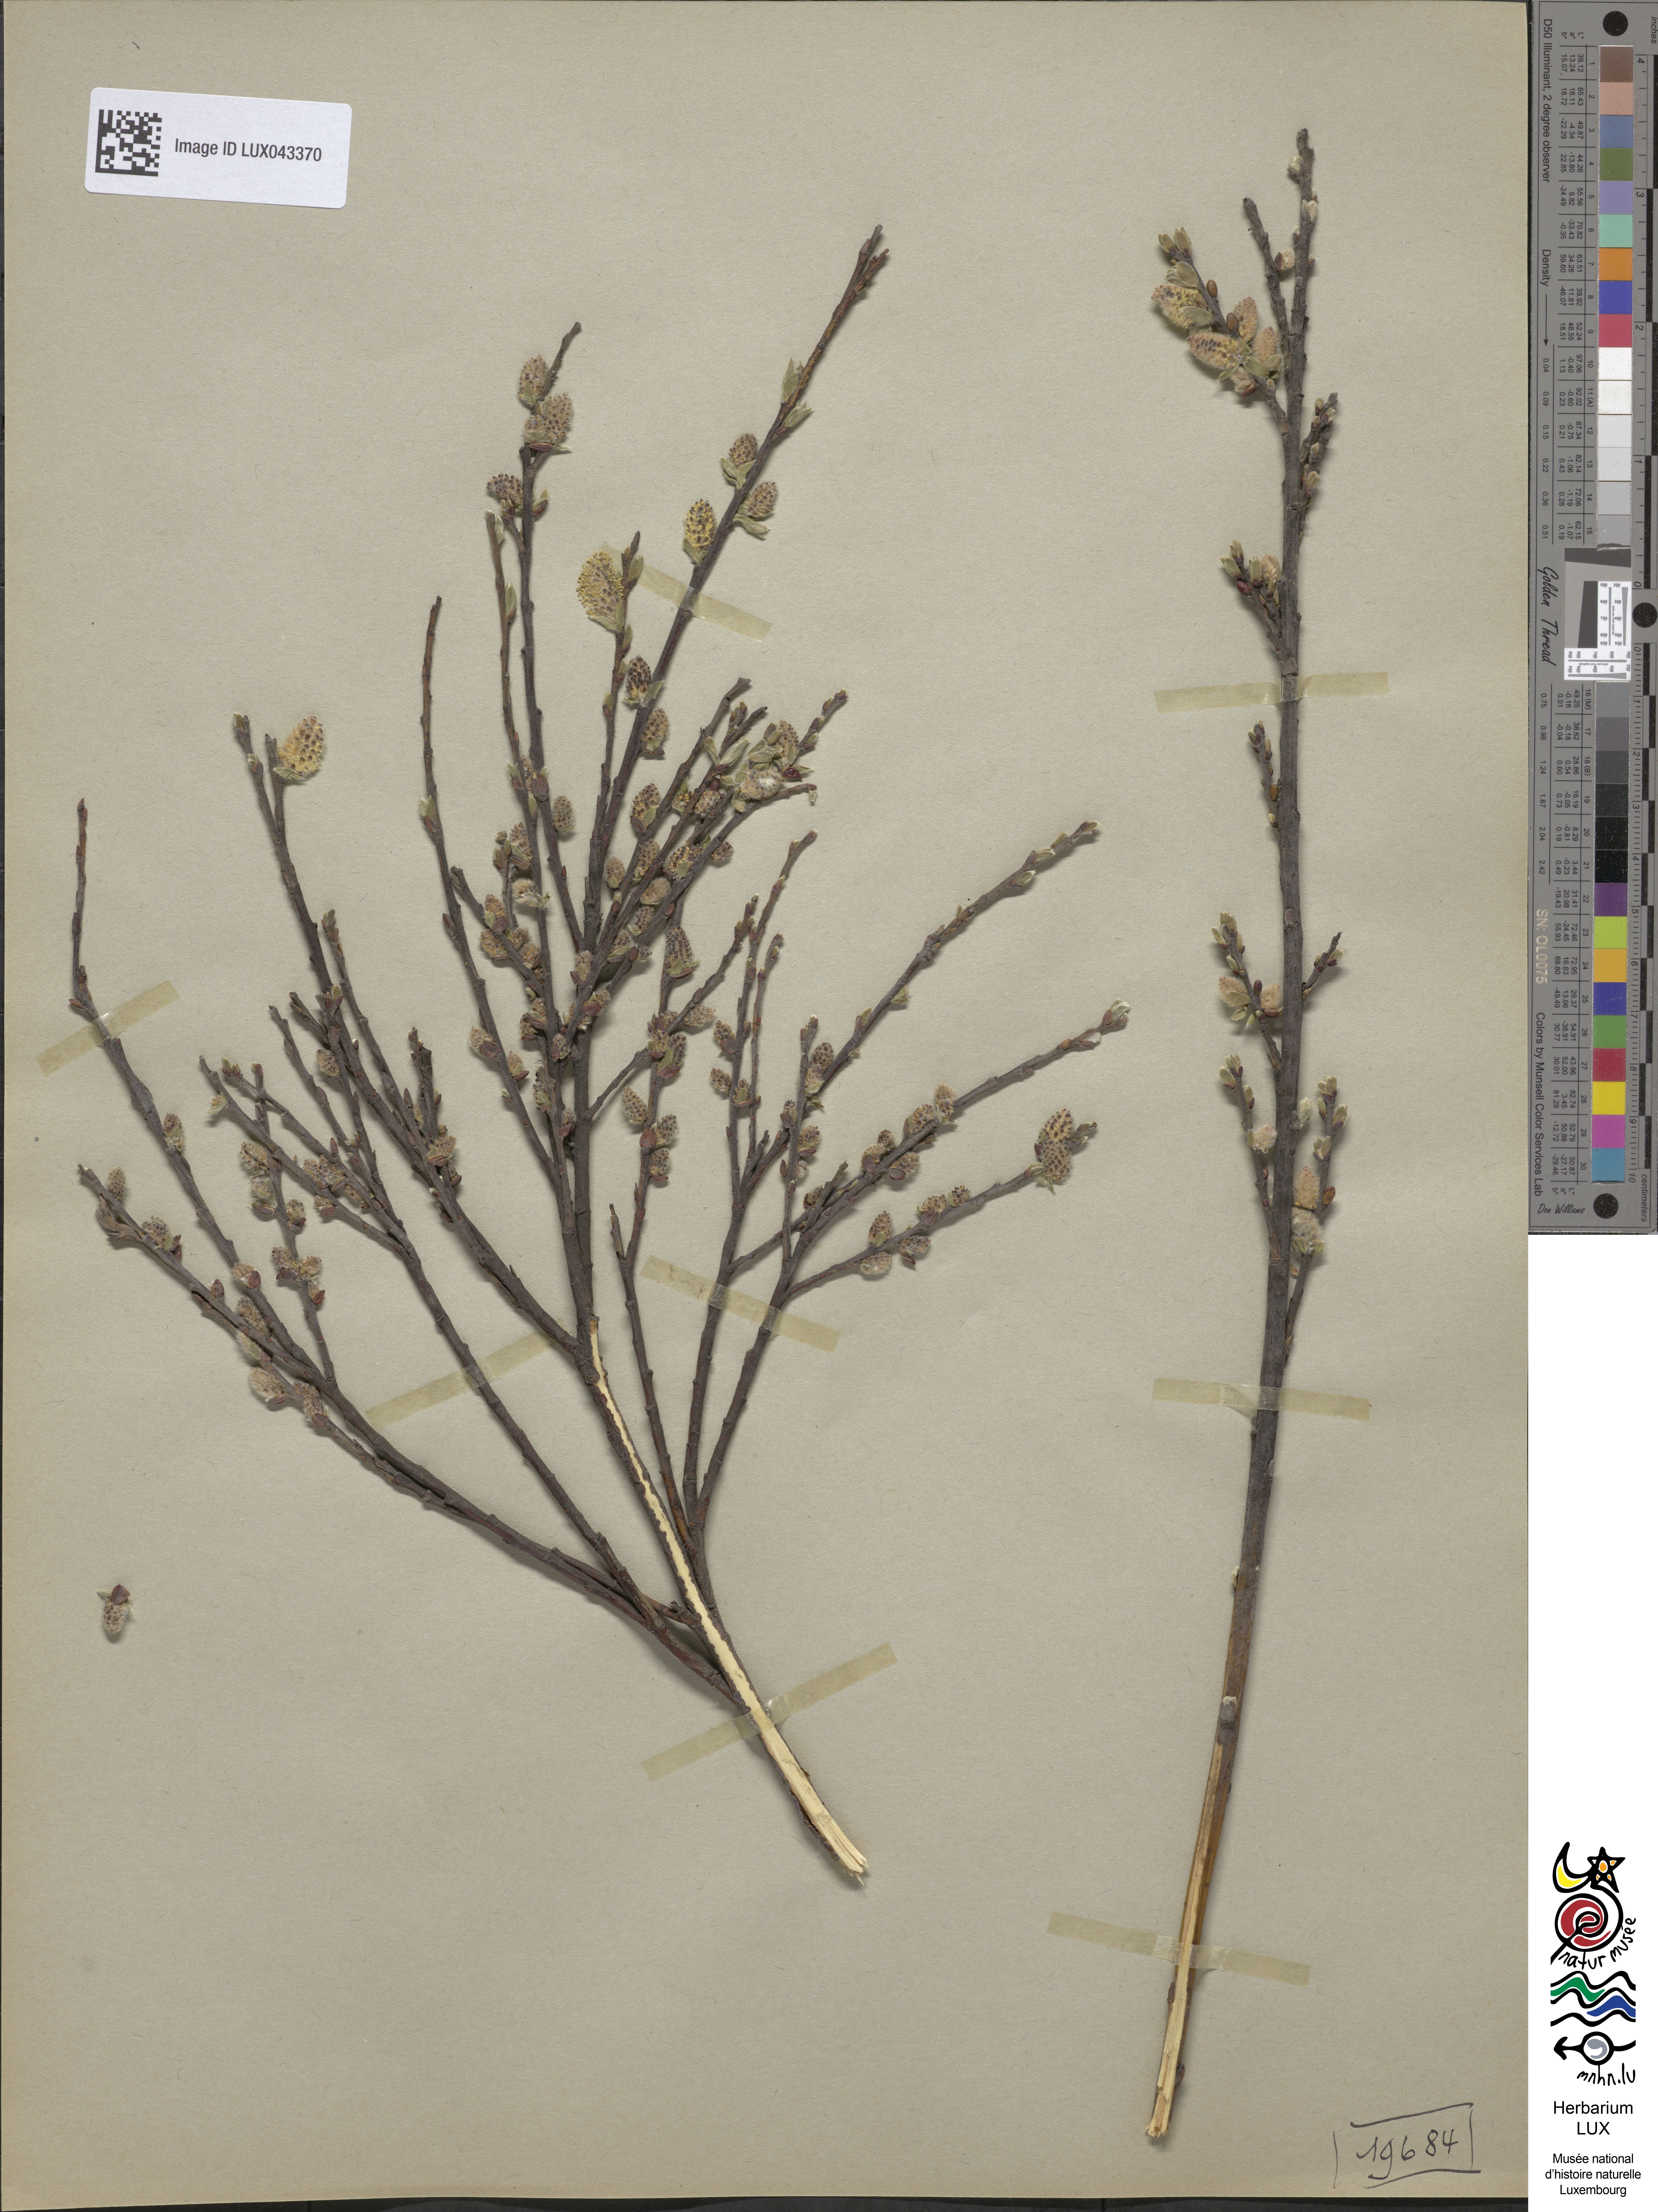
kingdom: Plantae
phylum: Tracheophyta
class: Magnoliopsida
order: Malpighiales
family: Salicaceae
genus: Salix
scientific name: Salix repens
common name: Creeping willow
